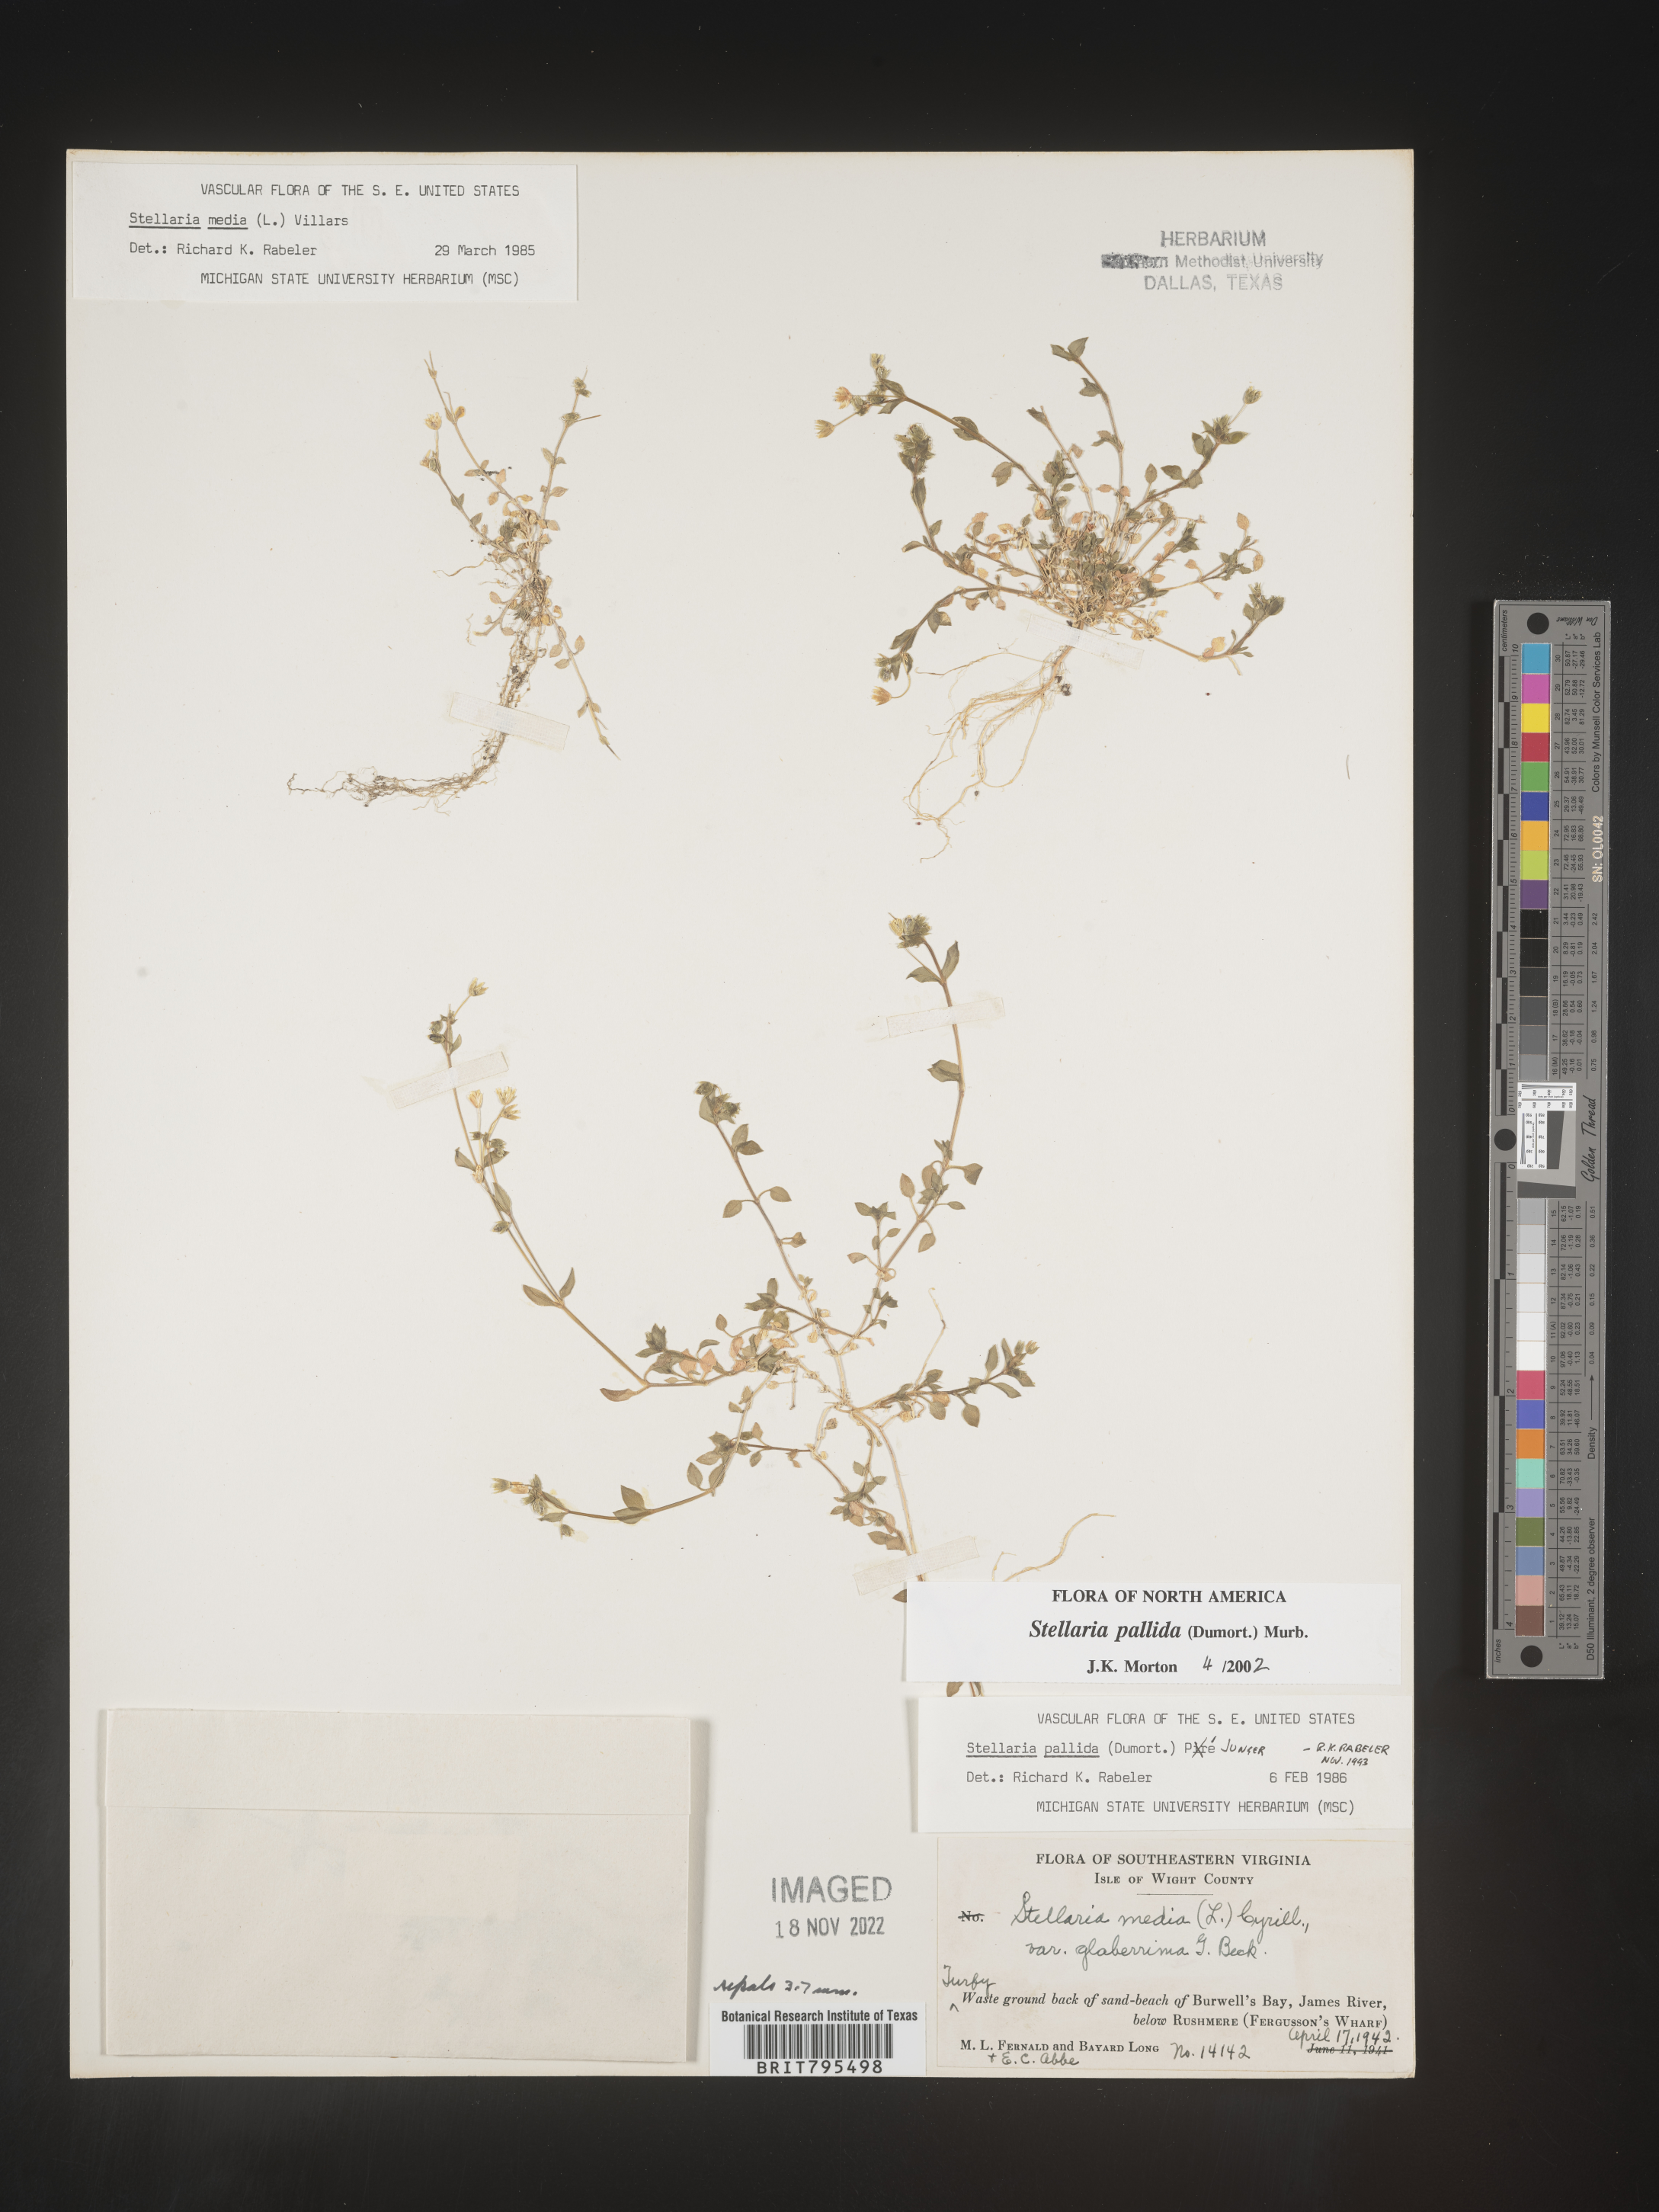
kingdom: Plantae
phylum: Tracheophyta
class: Magnoliopsida
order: Caryophyllales
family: Caryophyllaceae
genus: Stellaria
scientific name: Stellaria apetala
